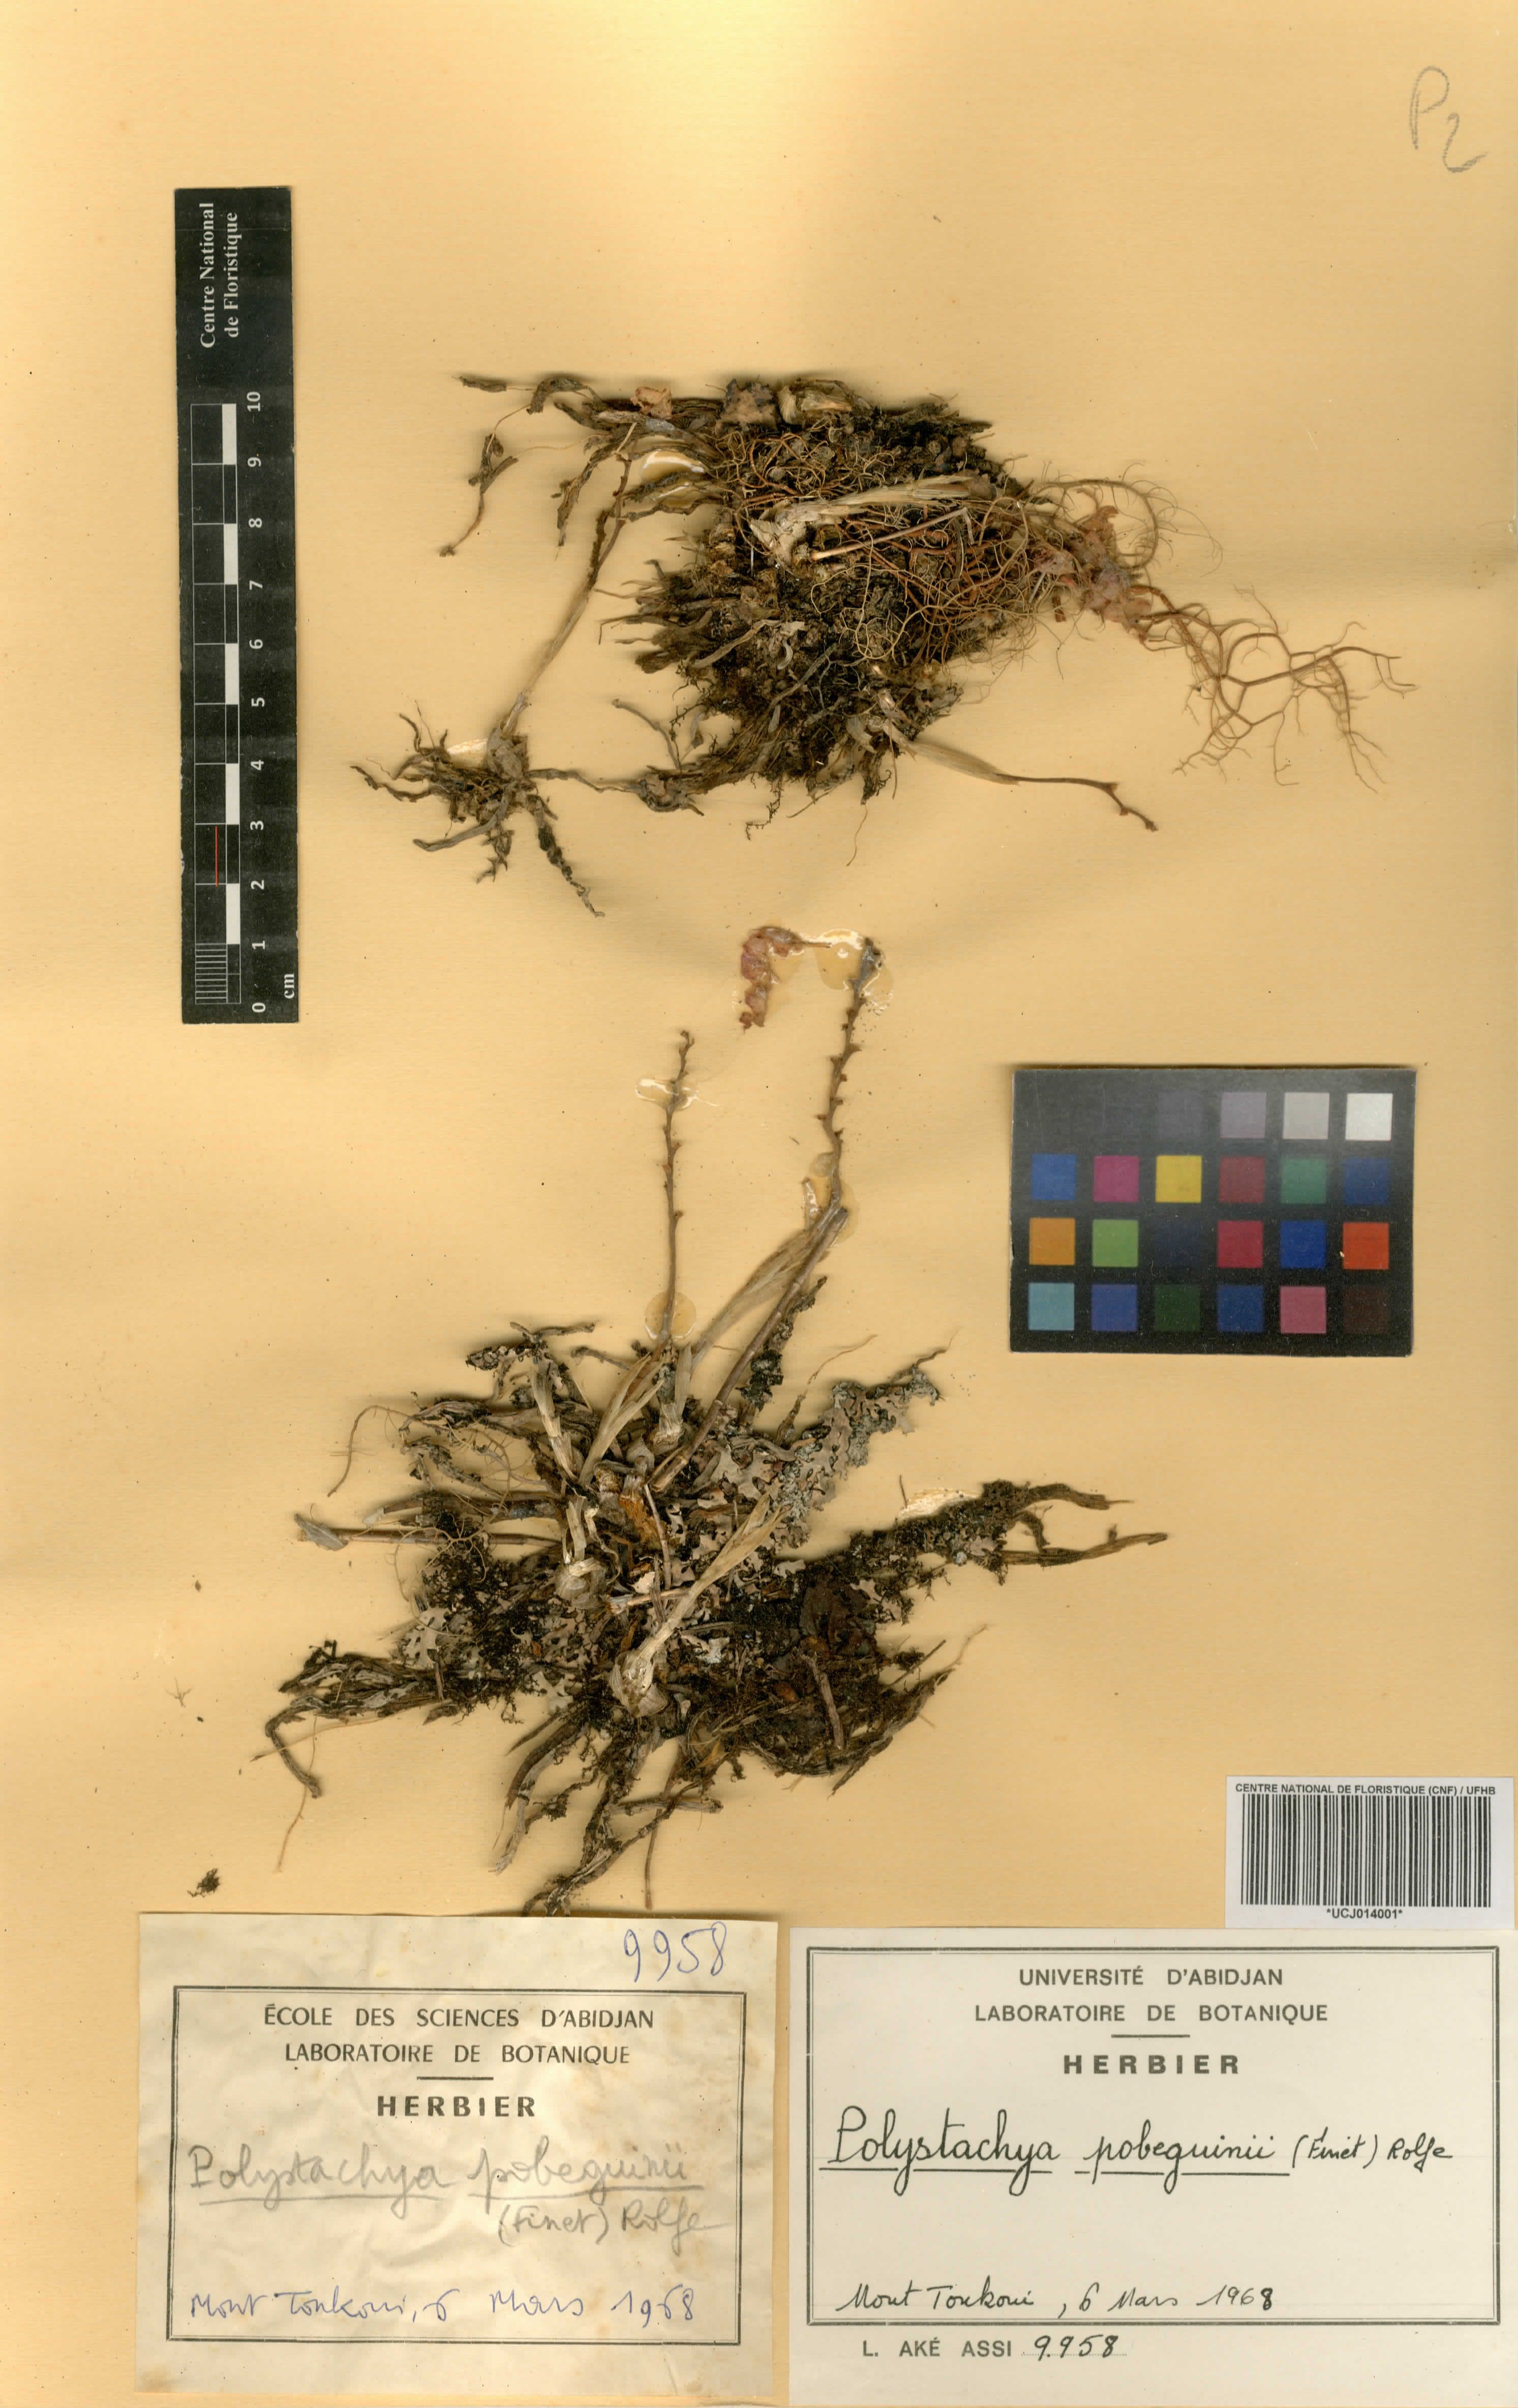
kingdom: Plantae
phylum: Tracheophyta
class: Liliopsida
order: Asparagales
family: Orchidaceae
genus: Polystachya
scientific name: Polystachya pobeguinii
